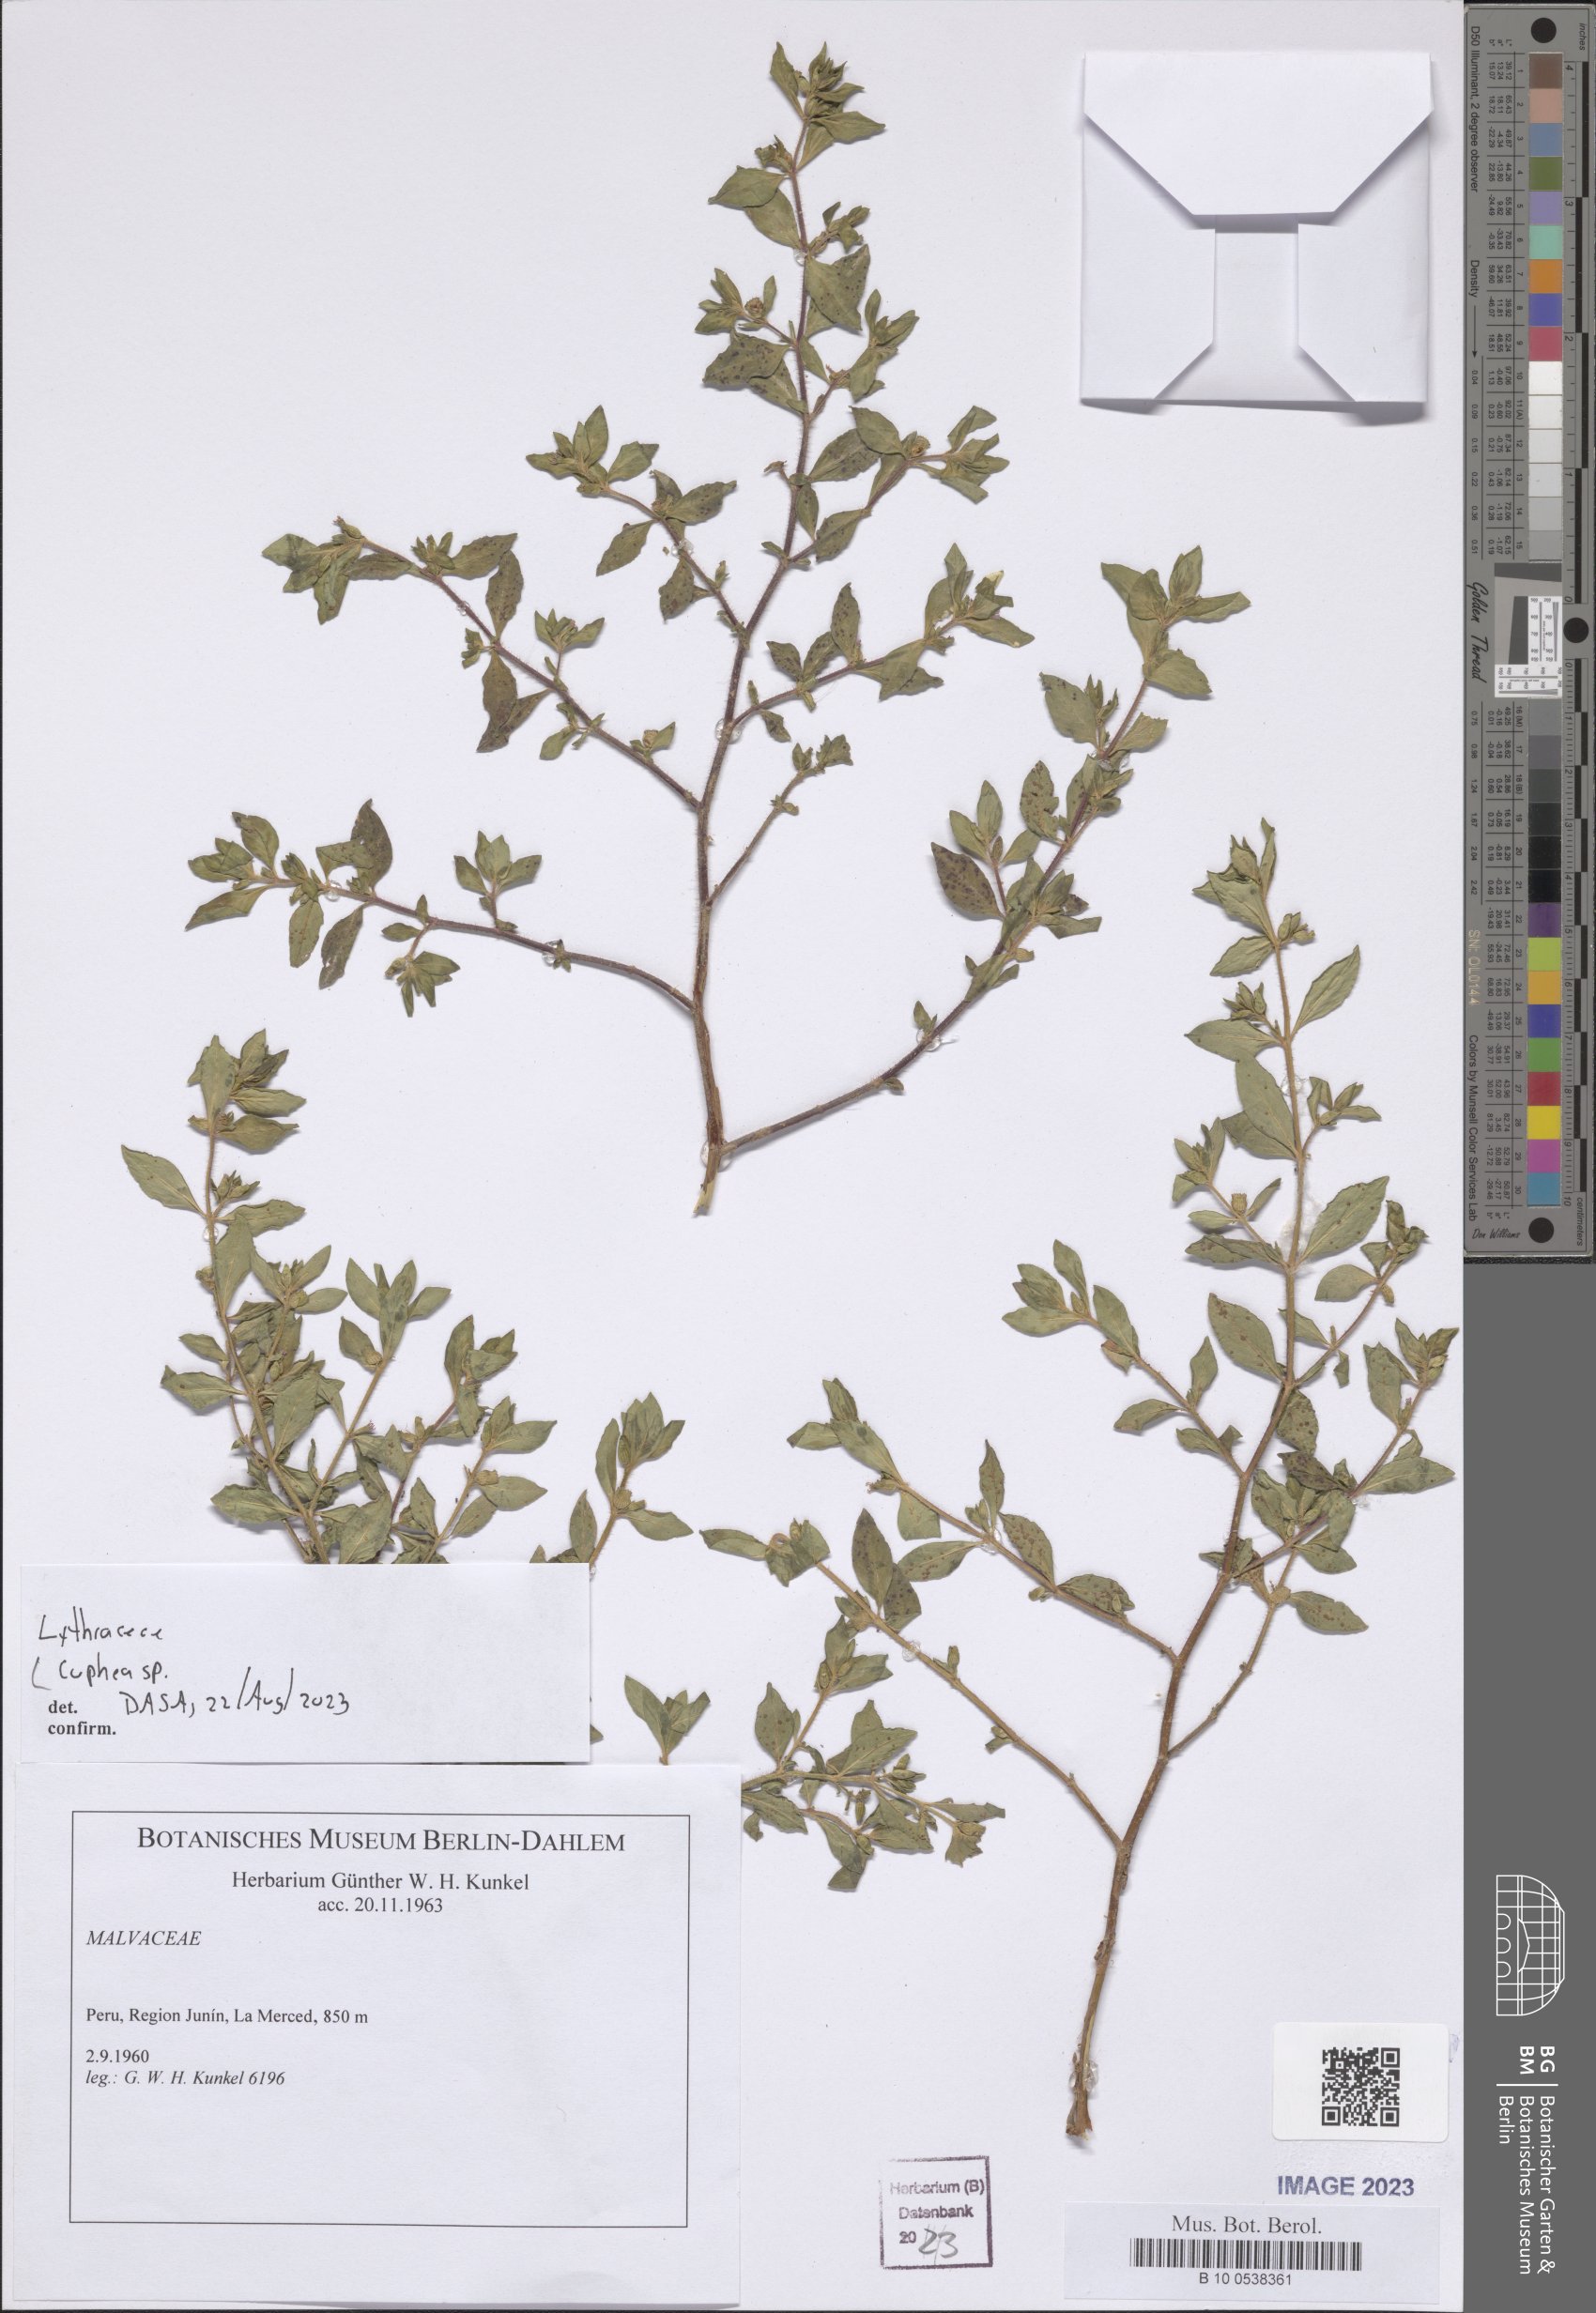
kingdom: Plantae
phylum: Tracheophyta
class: Magnoliopsida
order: Myrtales
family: Lythraceae
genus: Cuphea
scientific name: Cuphea
